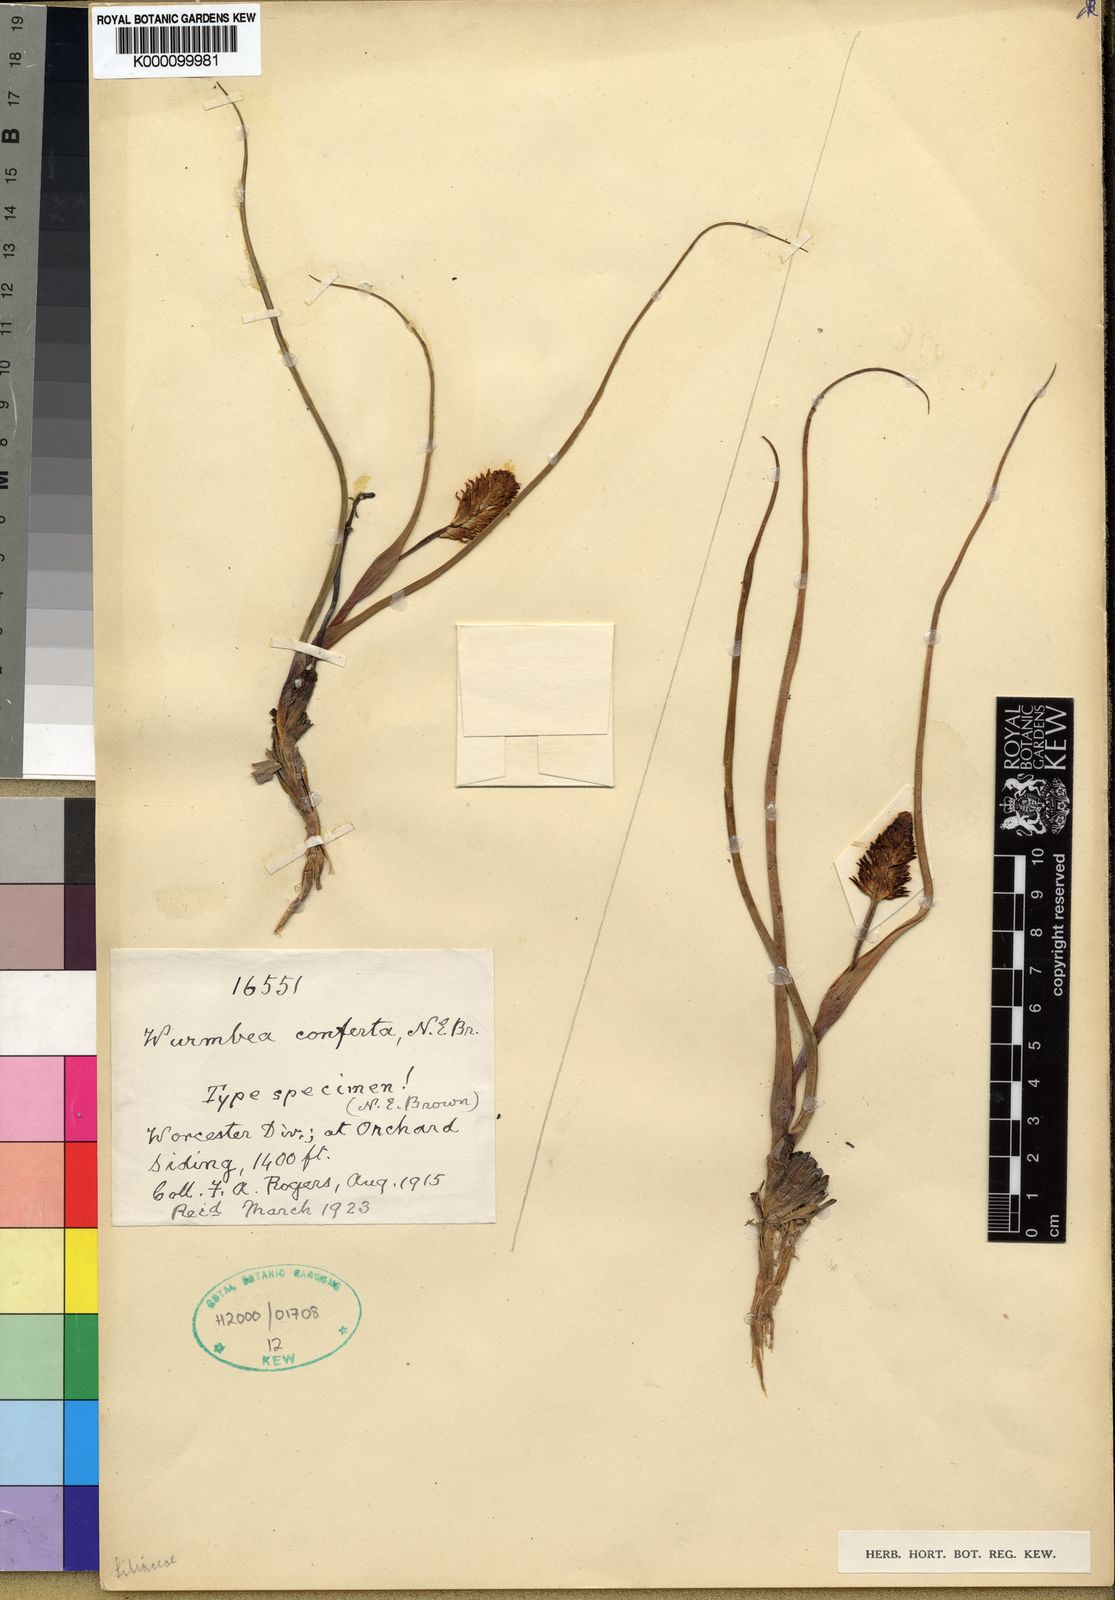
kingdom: Plantae
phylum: Tracheophyta
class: Liliopsida
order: Liliales
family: Colchicaceae
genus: Wurmbea
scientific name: Wurmbea spicata
